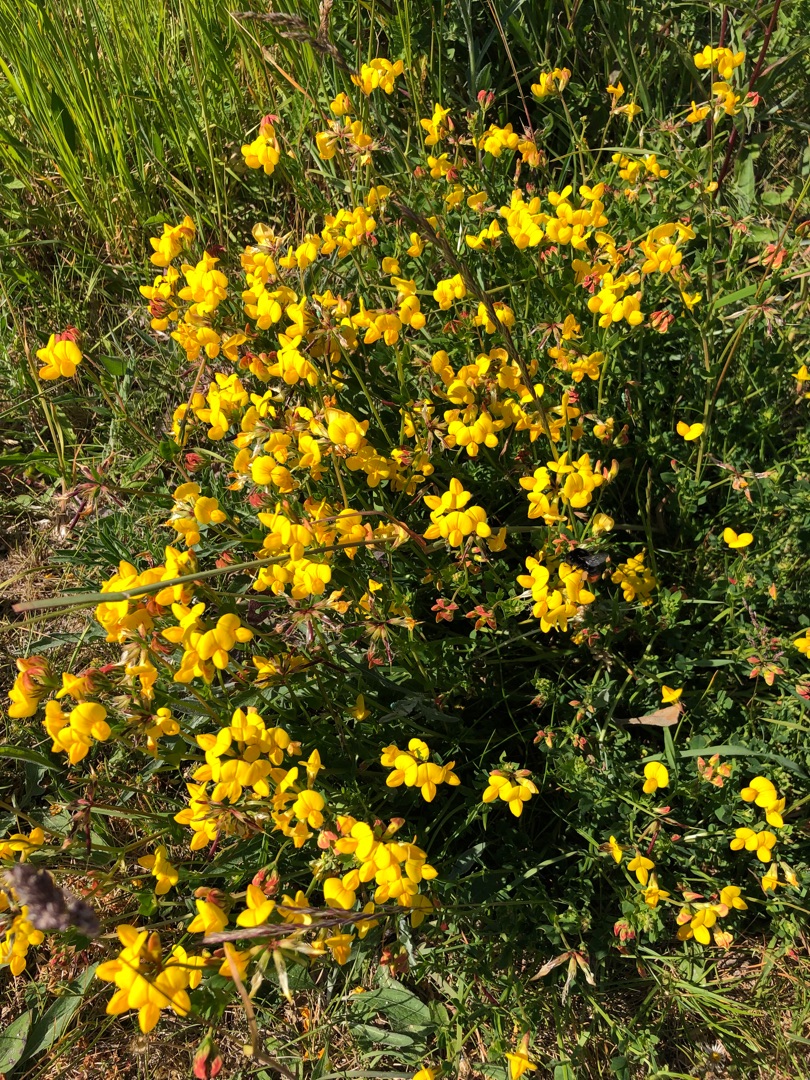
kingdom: Plantae
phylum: Tracheophyta
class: Magnoliopsida
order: Fabales
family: Fabaceae
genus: Lotus
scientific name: Lotus corniculatus
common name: Almindelig kællingetand
